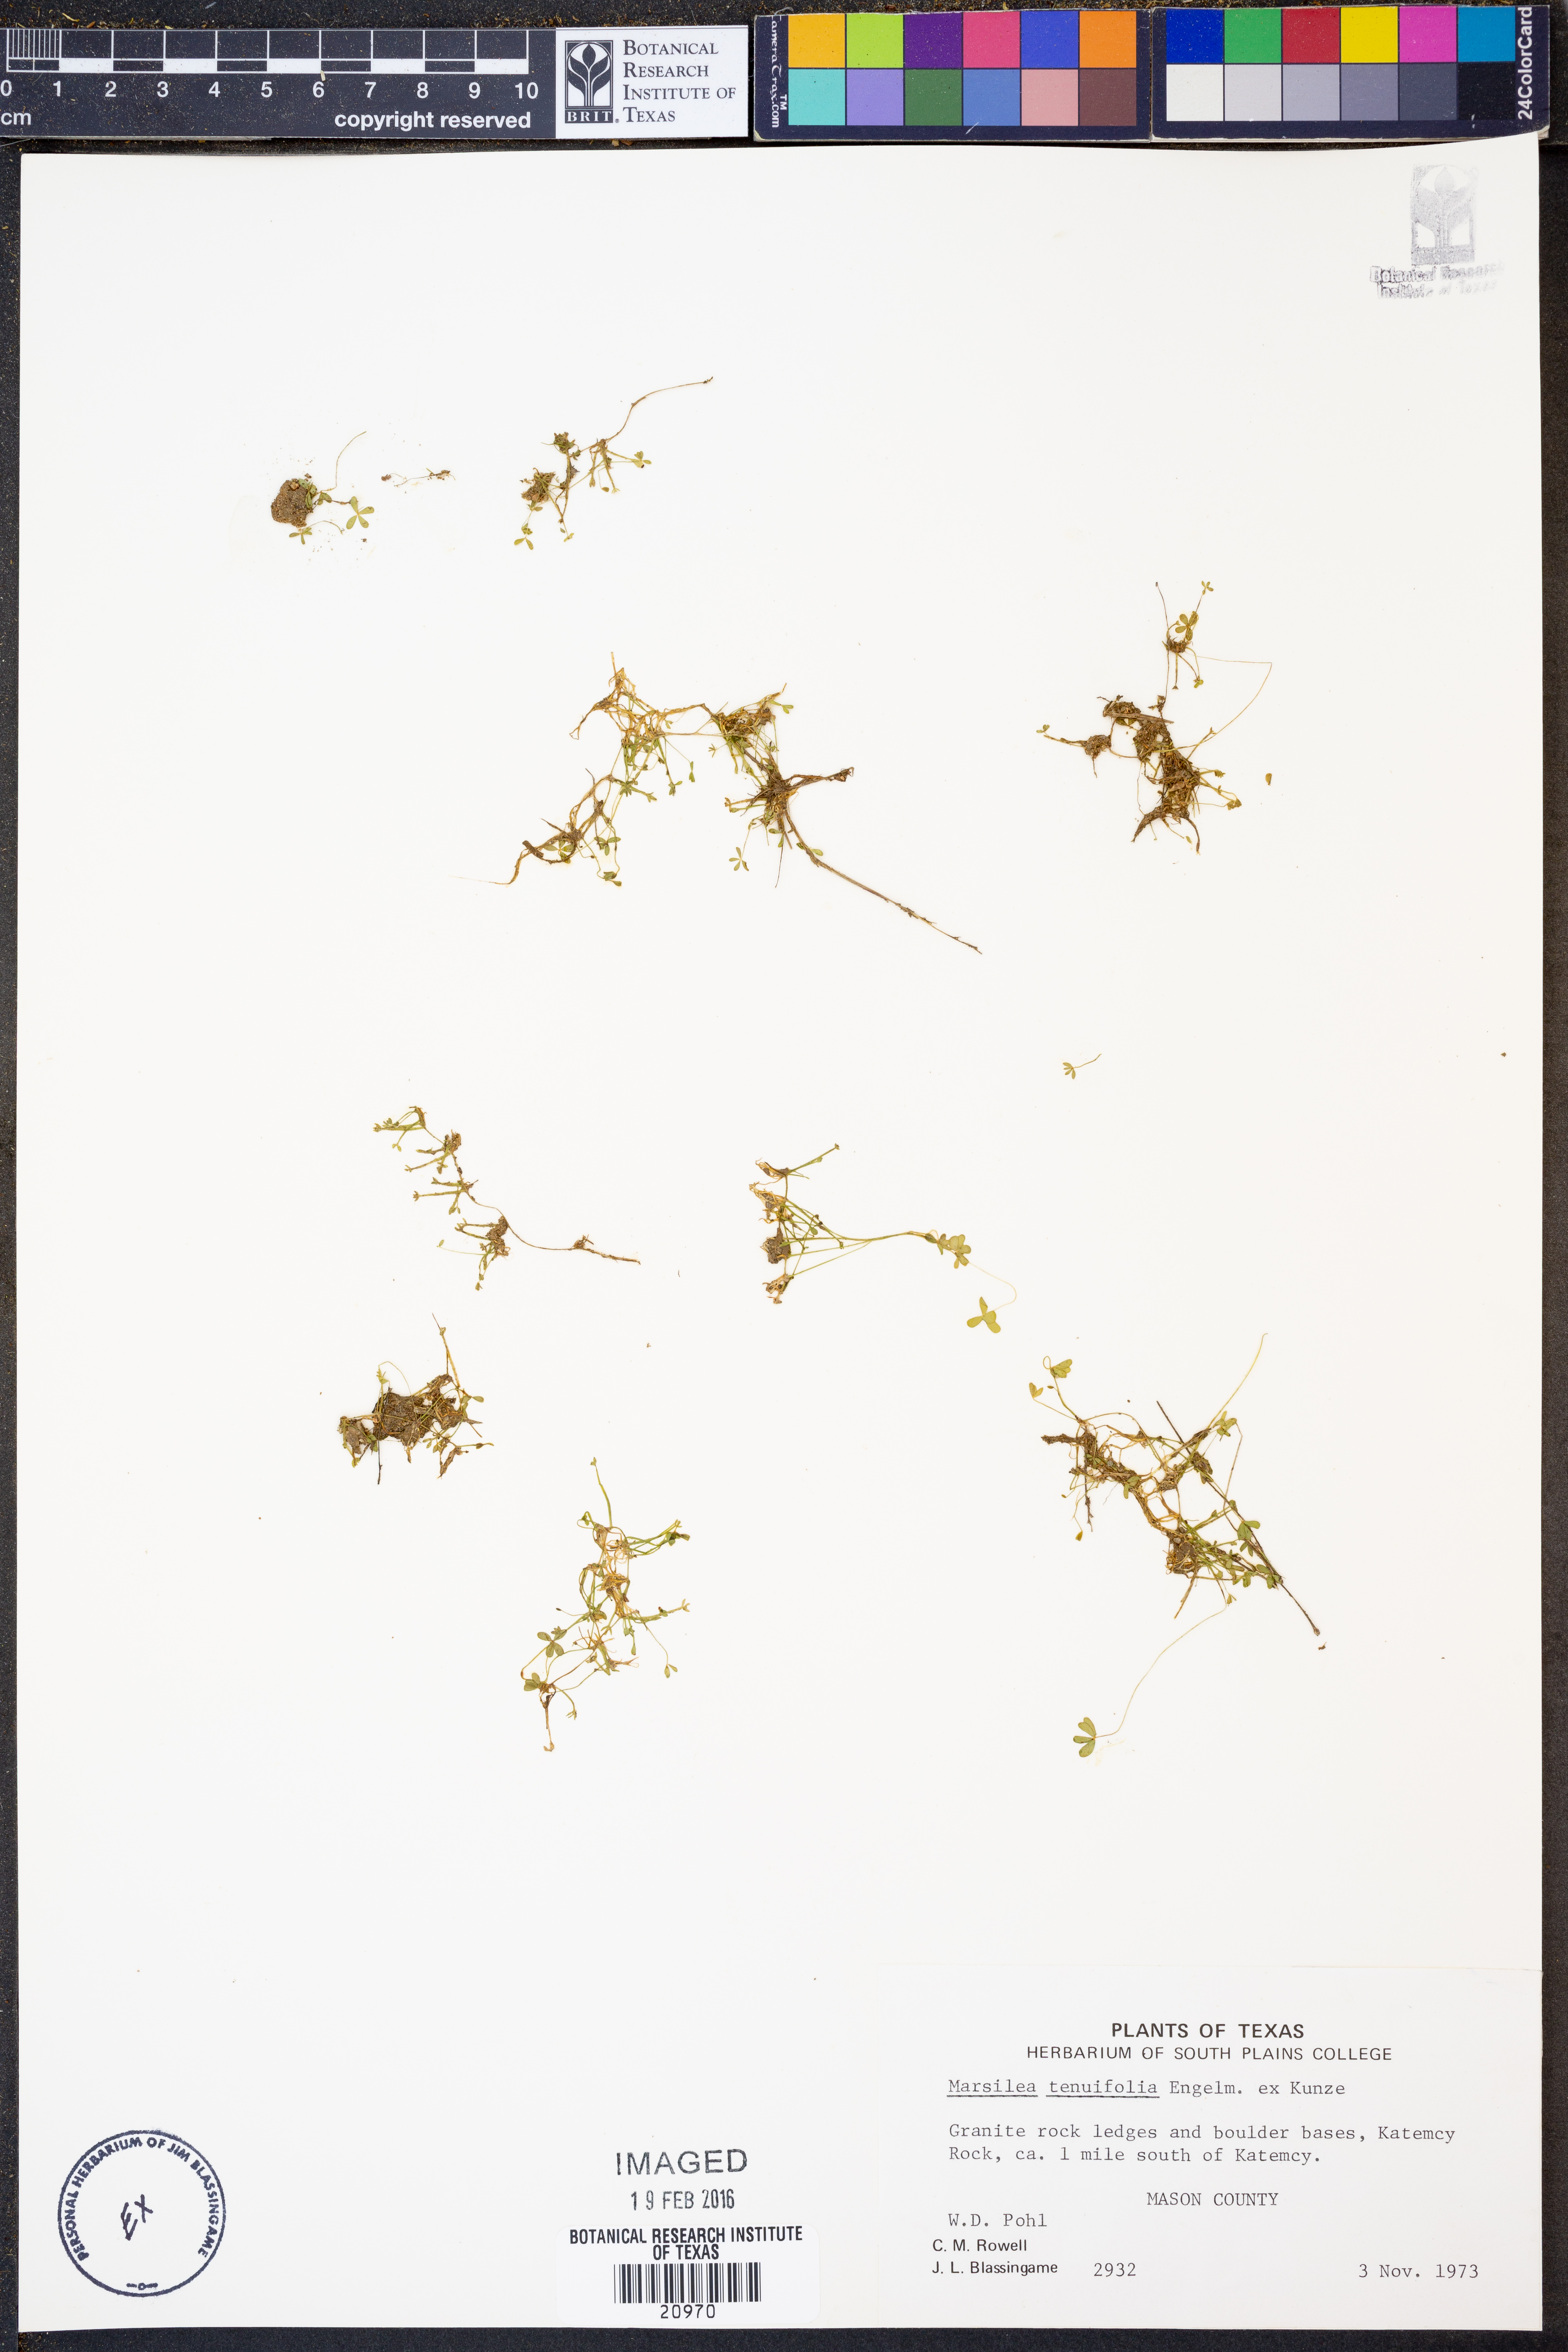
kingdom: Plantae
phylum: Tracheophyta
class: Polypodiopsida
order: Salviniales
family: Marsileaceae
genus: Marsilea
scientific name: Marsilea vestita
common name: Hooked-pepperwort
